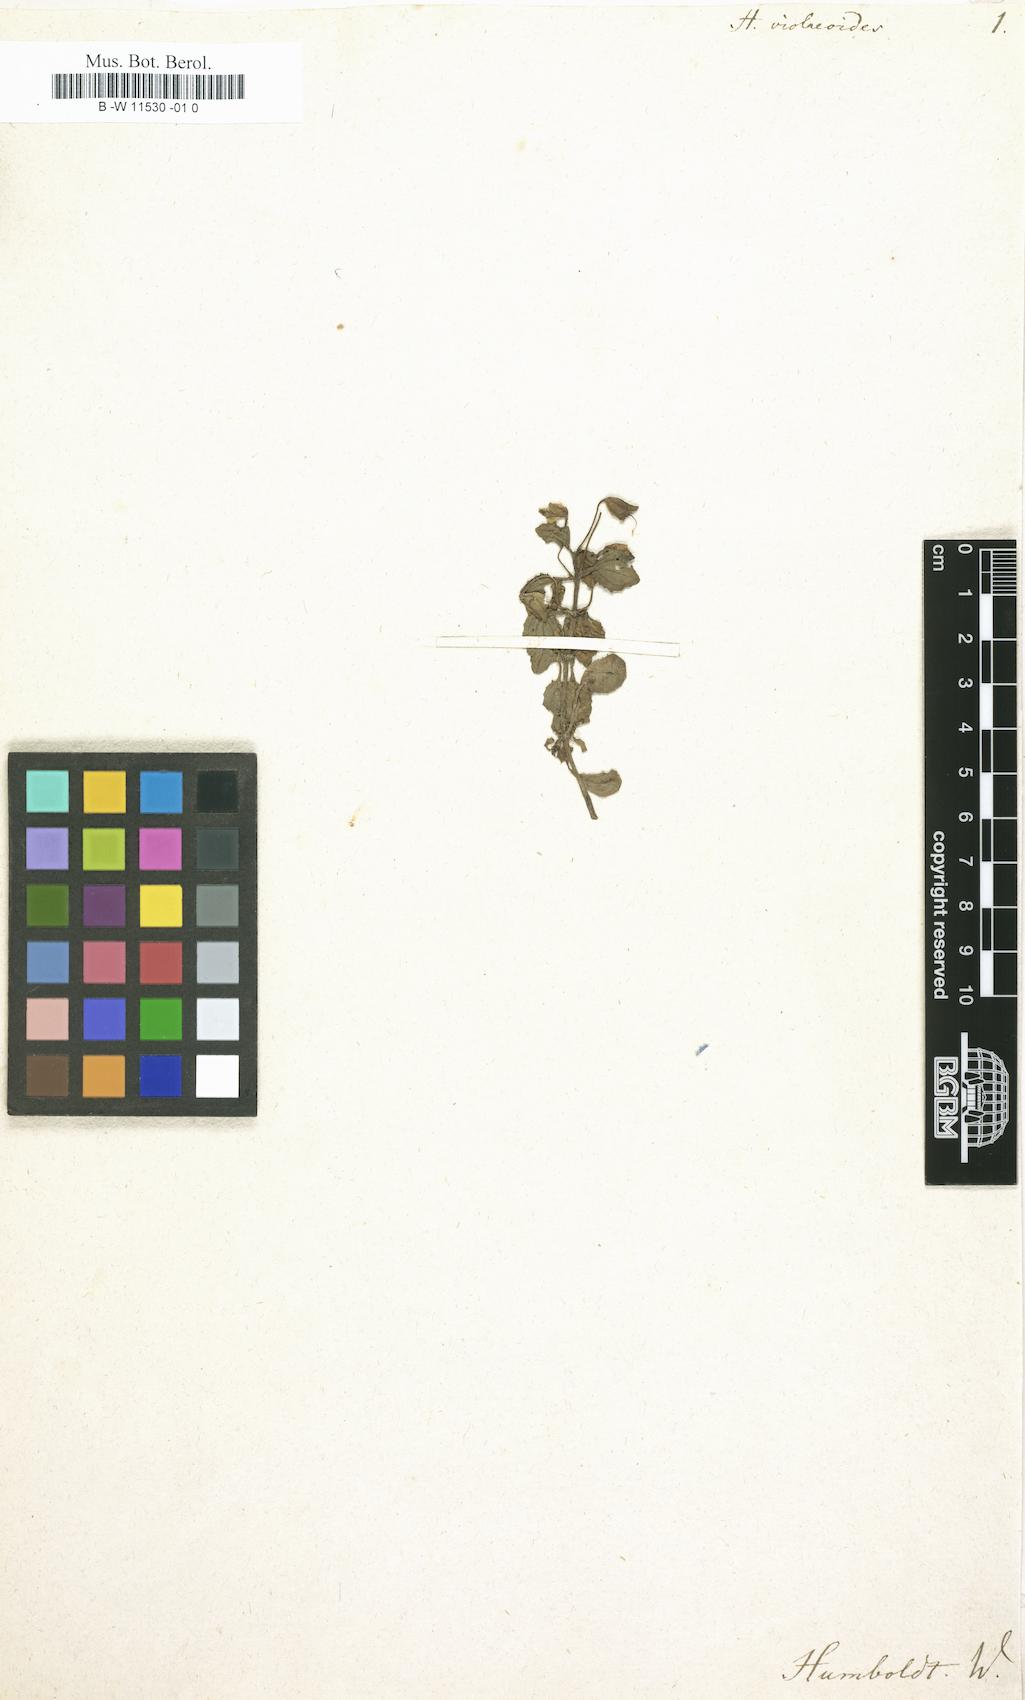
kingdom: Plantae
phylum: Tracheophyta
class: Magnoliopsida
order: Lamiales
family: Plantaginaceae
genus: Bacopa
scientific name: Bacopa
